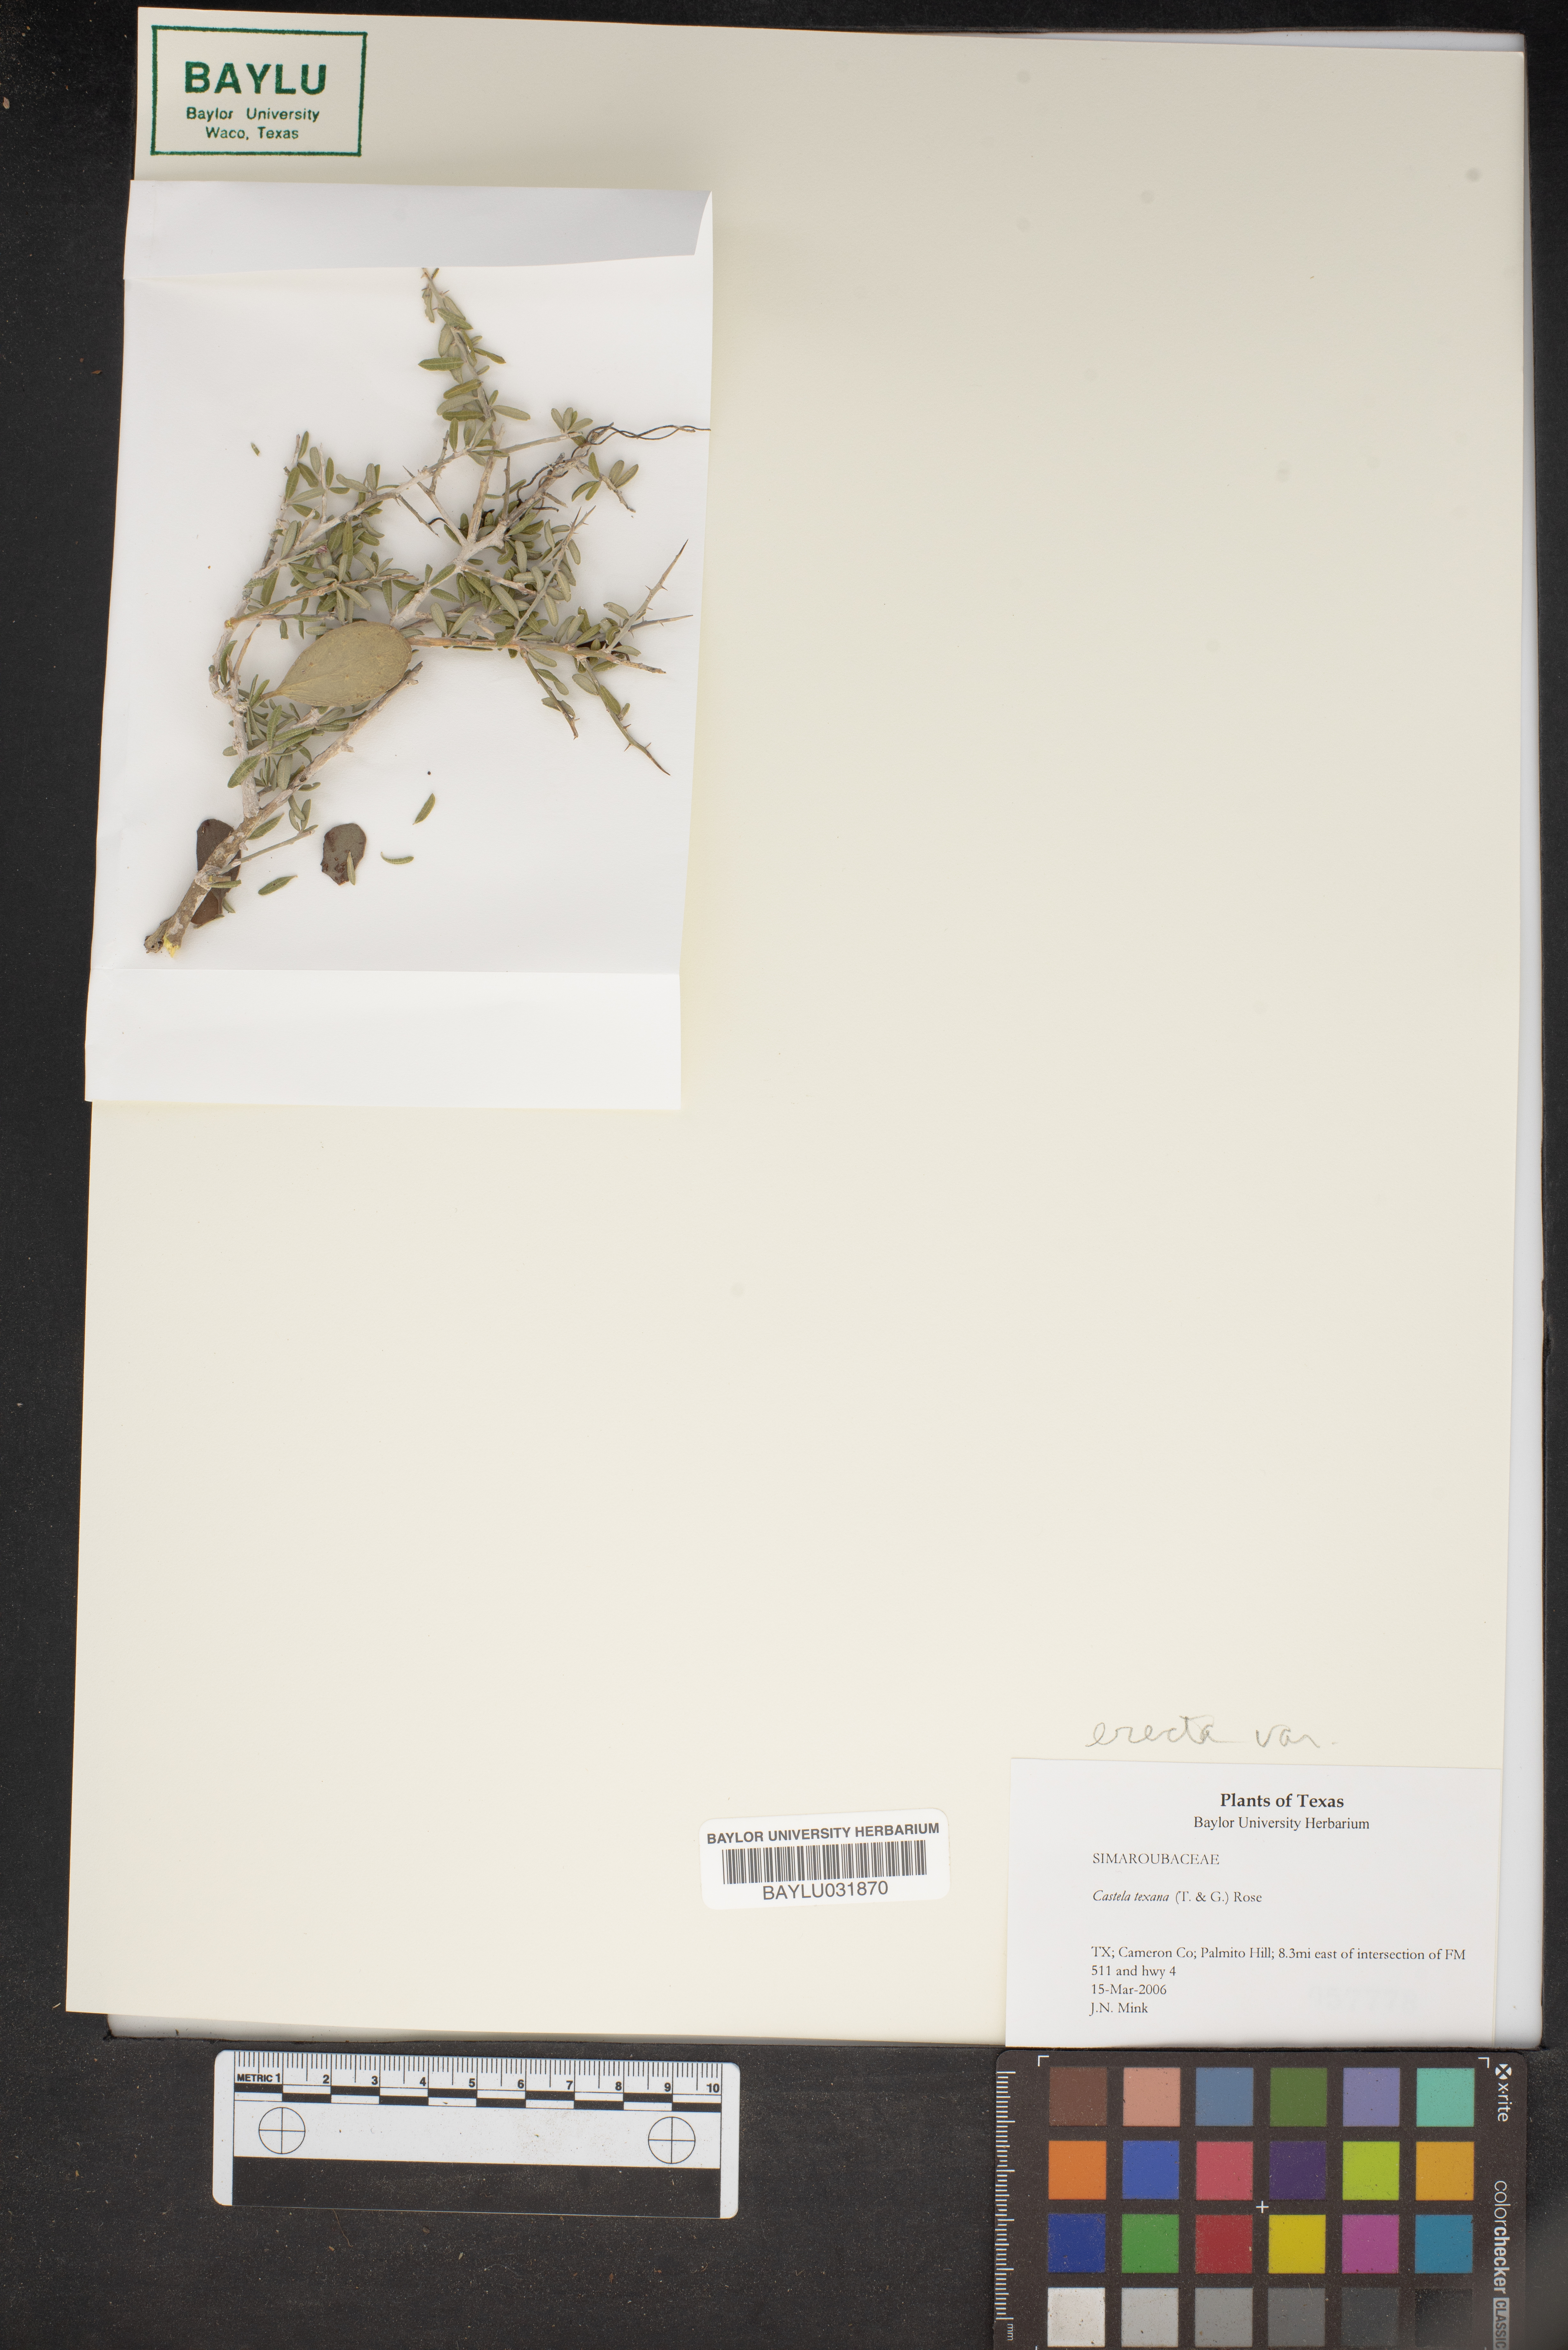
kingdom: Plantae
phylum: Tracheophyta
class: Magnoliopsida
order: Sapindales
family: Simaroubaceae
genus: Castela
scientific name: Castela tortuosa
